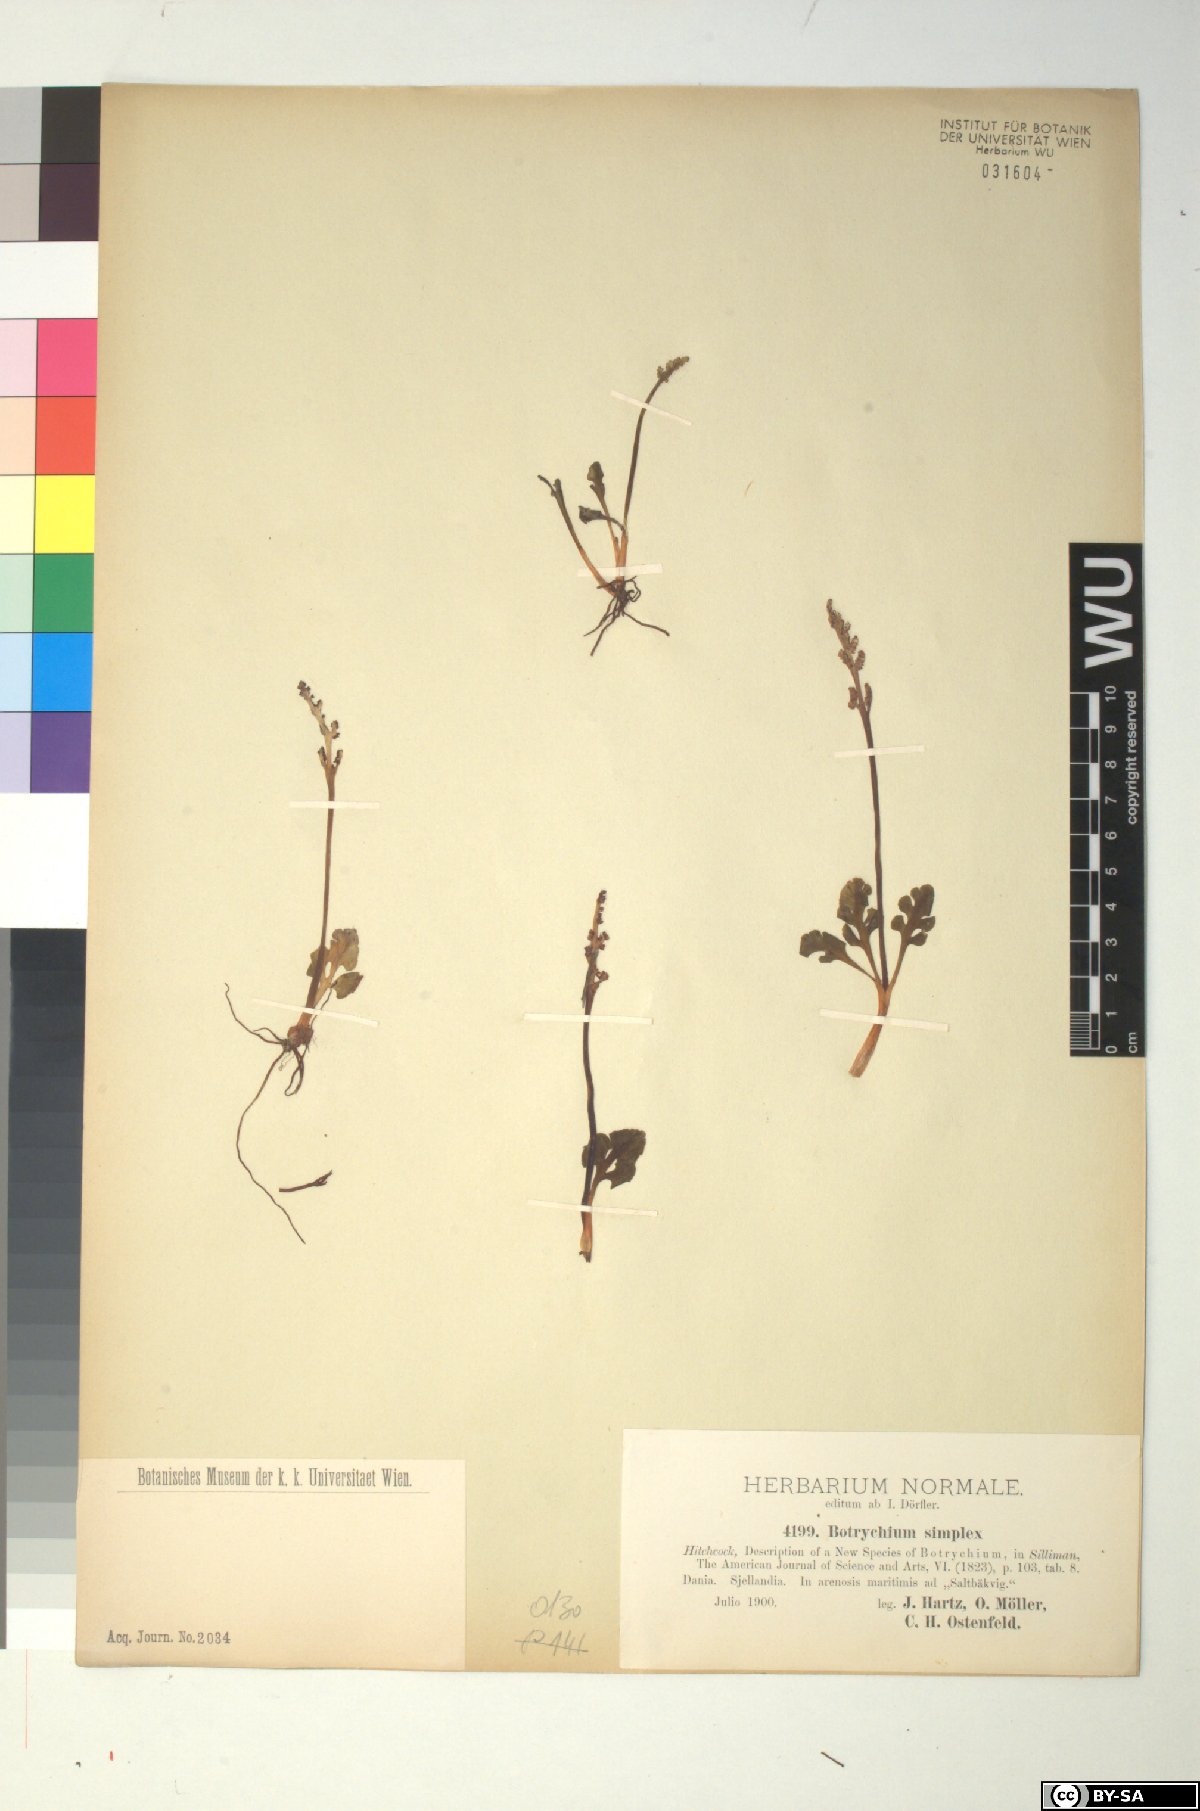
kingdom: Plantae
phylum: Tracheophyta
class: Polypodiopsida
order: Ophioglossales
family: Ophioglossaceae
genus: Botrychium
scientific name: Botrychium simplex
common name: Least moonwort
